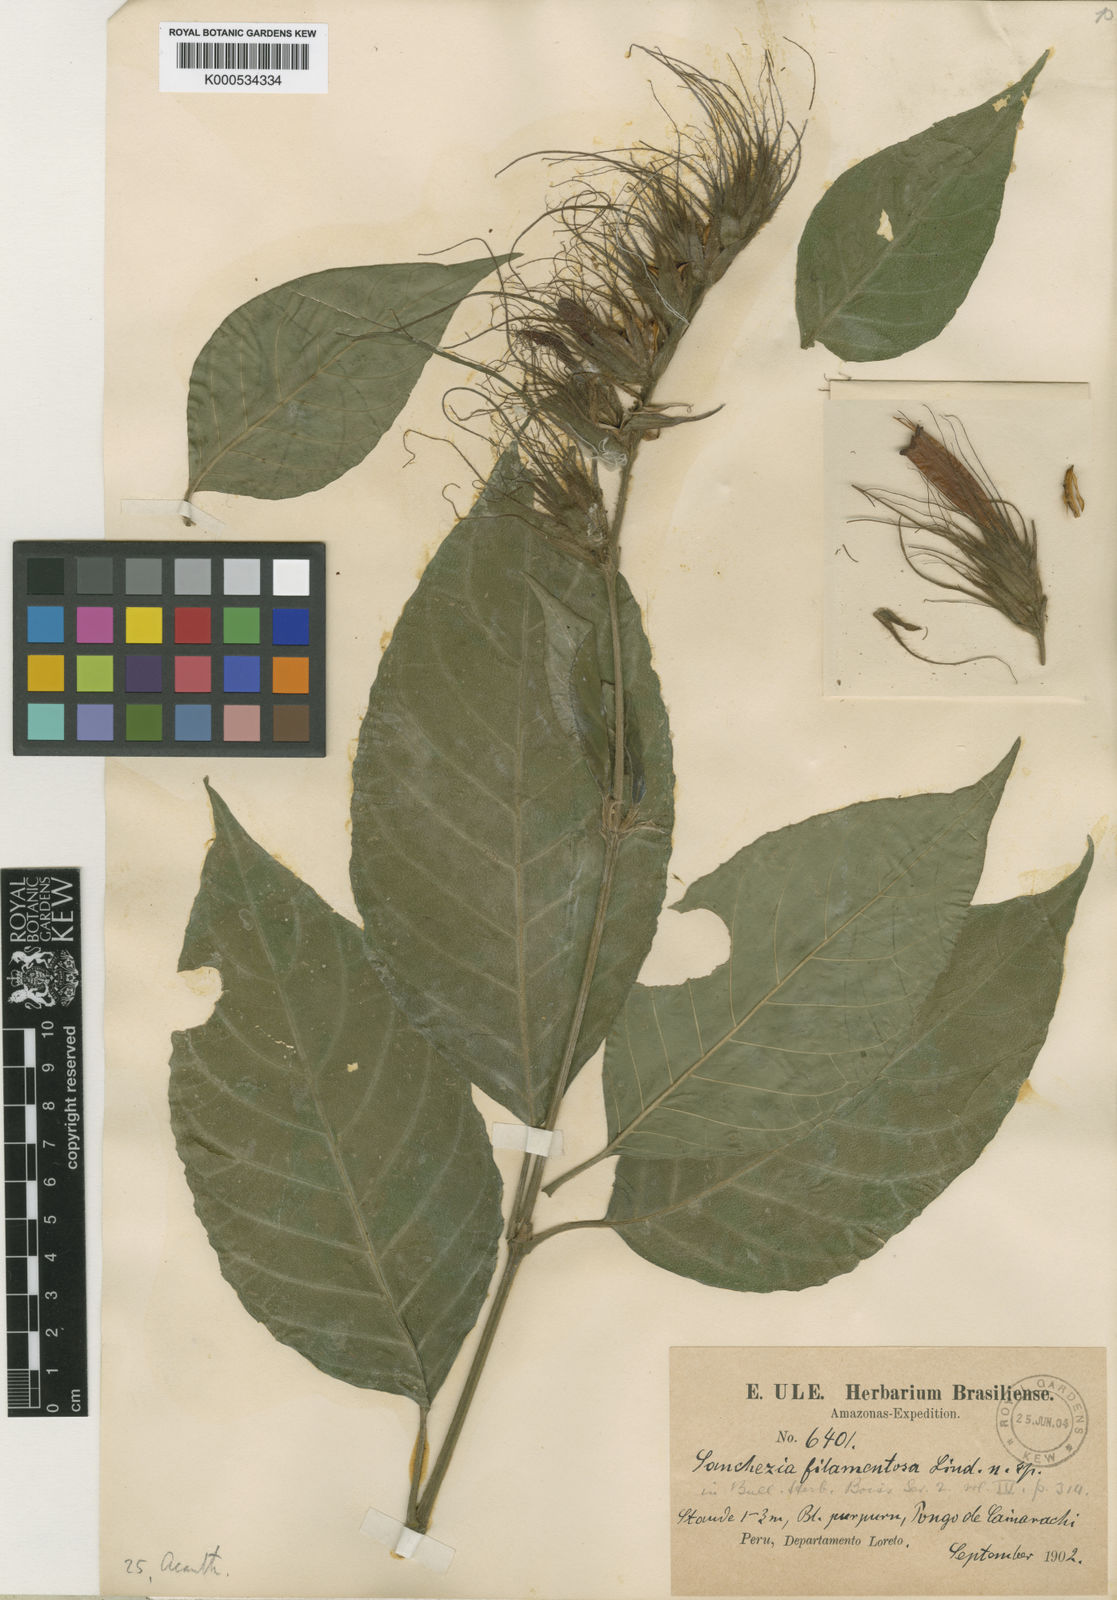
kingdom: Plantae
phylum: Tracheophyta
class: Magnoliopsida
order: Lamiales
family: Acanthaceae
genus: Sanchezia
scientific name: Sanchezia filamentosa
